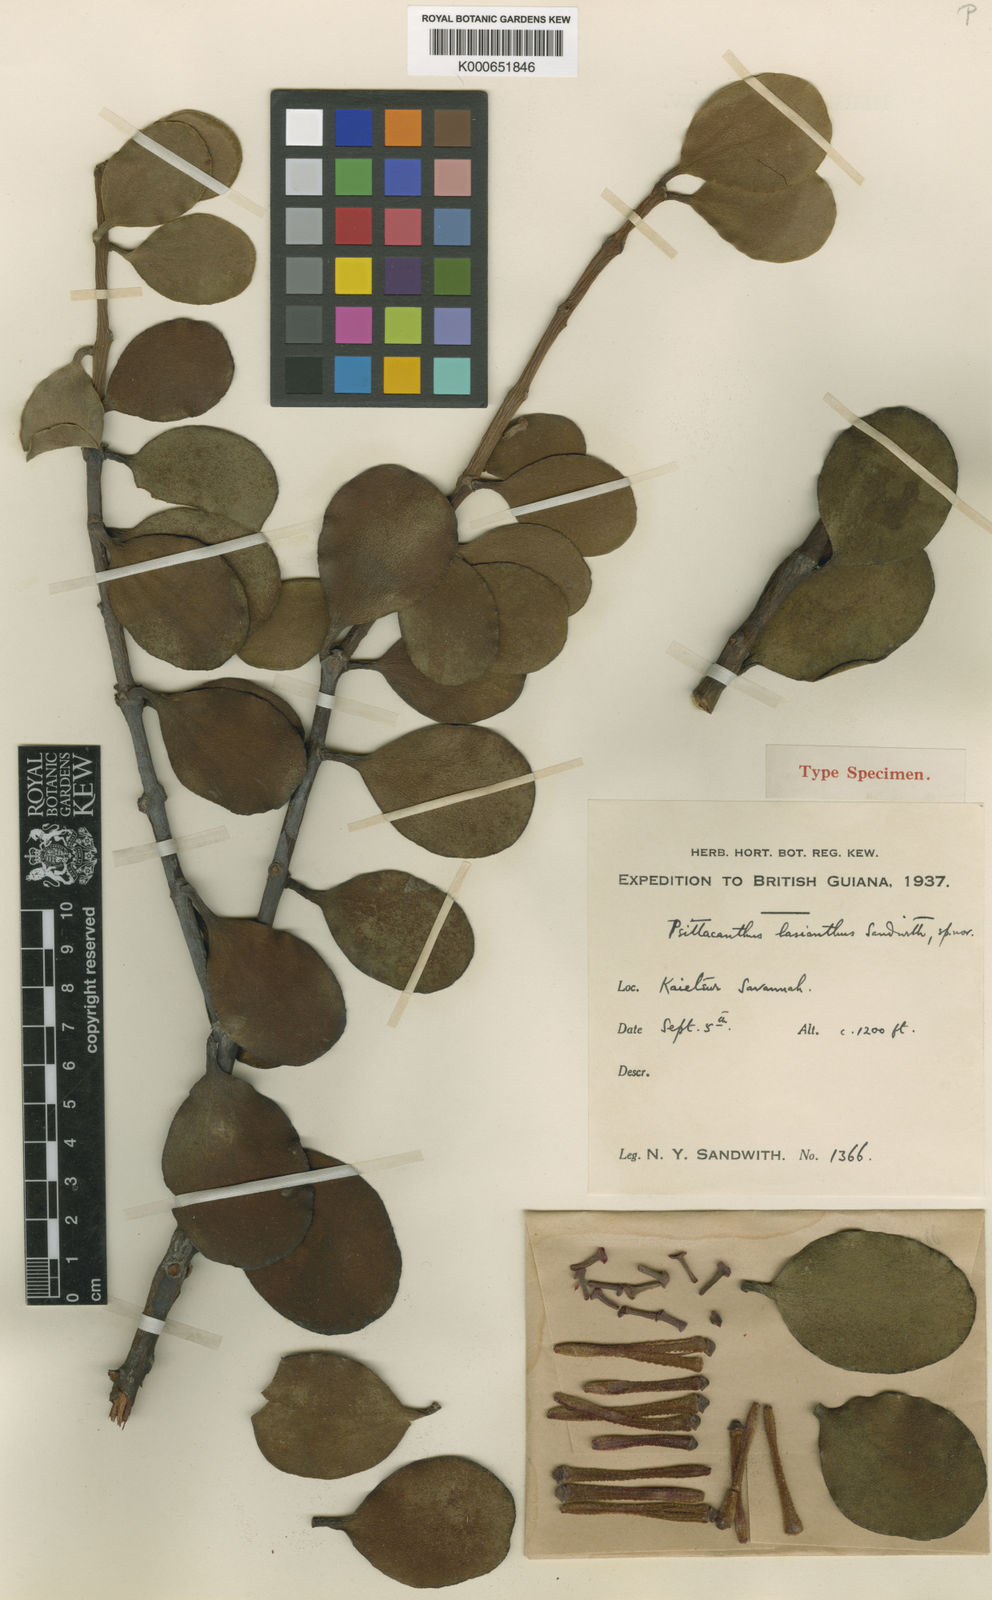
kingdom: Plantae
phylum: Tracheophyta
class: Magnoliopsida
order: Santalales
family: Loranthaceae
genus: Psittacanthus
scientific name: Psittacanthus lasianthus
